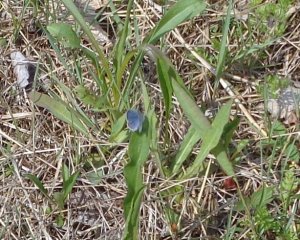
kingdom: Animalia
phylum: Arthropoda
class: Insecta
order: Lepidoptera
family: Lycaenidae
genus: Elkalyce
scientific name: Elkalyce comyntas
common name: Eastern Tailed-Blue
